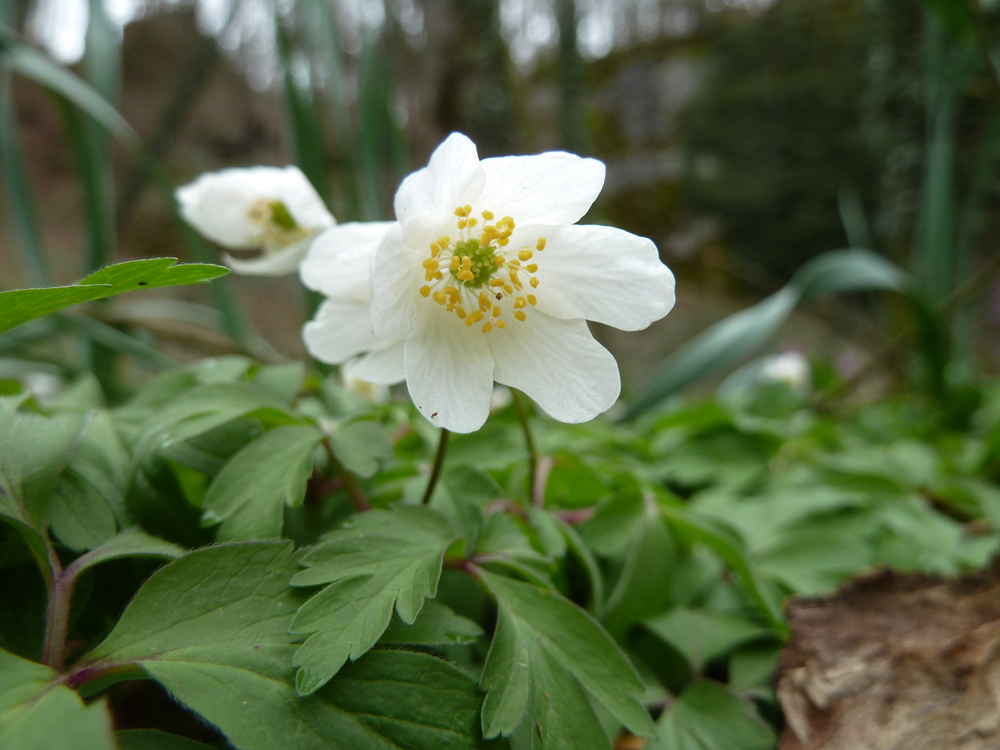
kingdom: Plantae
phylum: Tracheophyta
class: Magnoliopsida
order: Ranunculales
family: Ranunculaceae
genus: Anemone
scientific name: Anemone nemorosa
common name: Wood anemone
